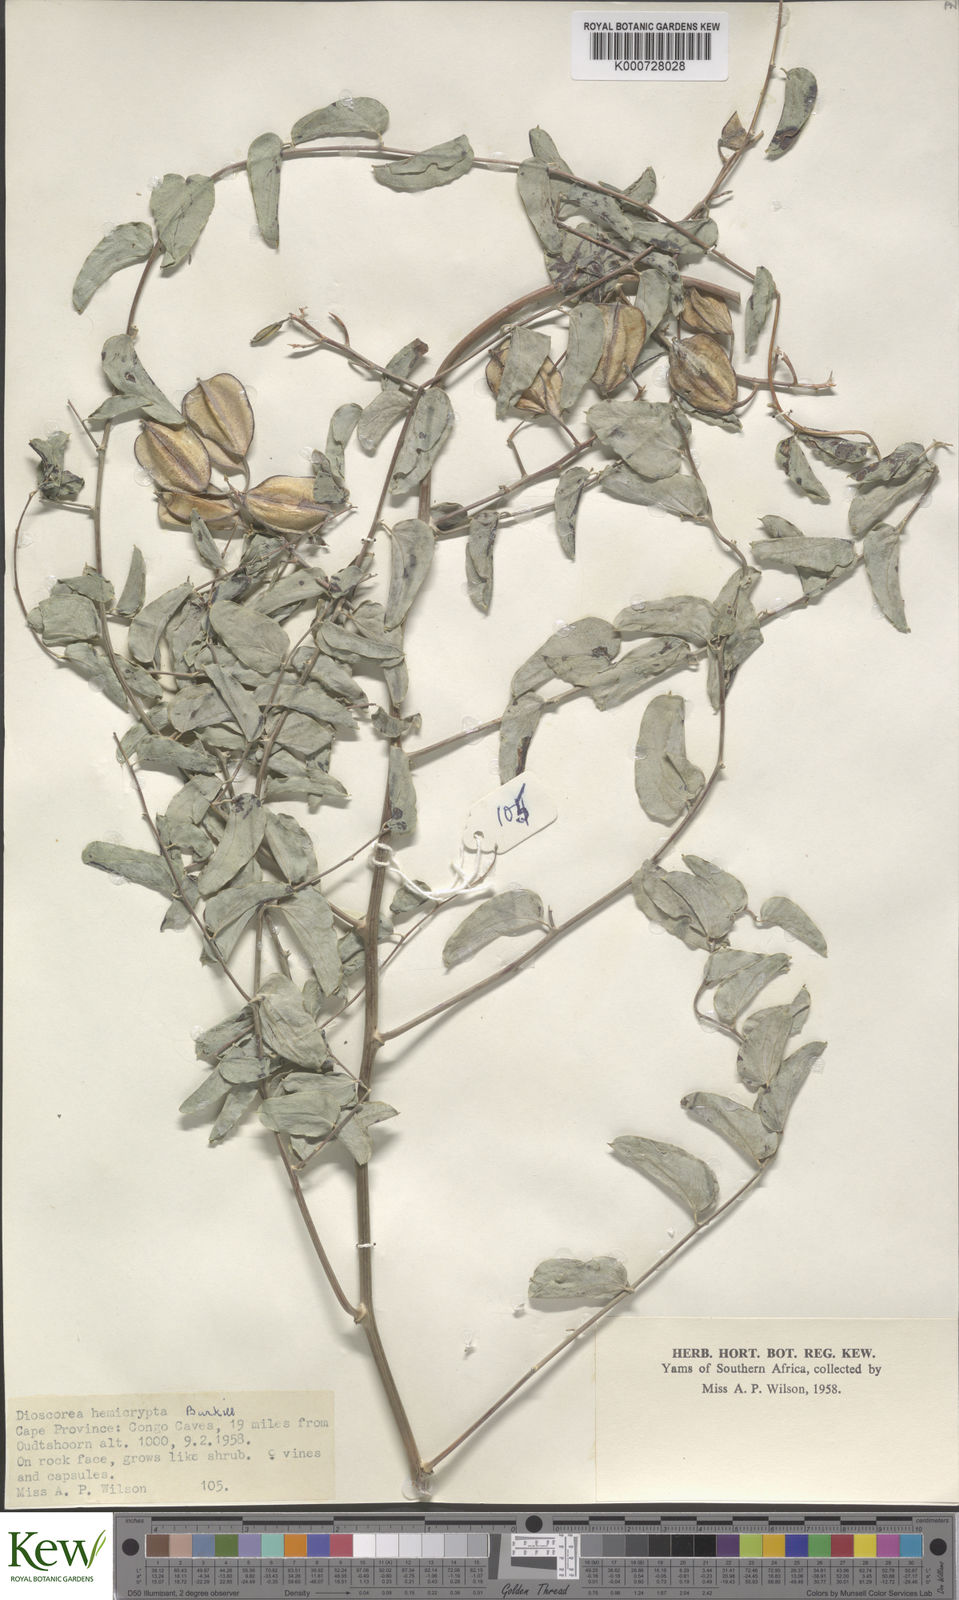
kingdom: Plantae
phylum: Tracheophyta
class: Liliopsida
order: Dioscoreales
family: Dioscoreaceae
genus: Dioscorea
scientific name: Dioscorea hemicrypta
